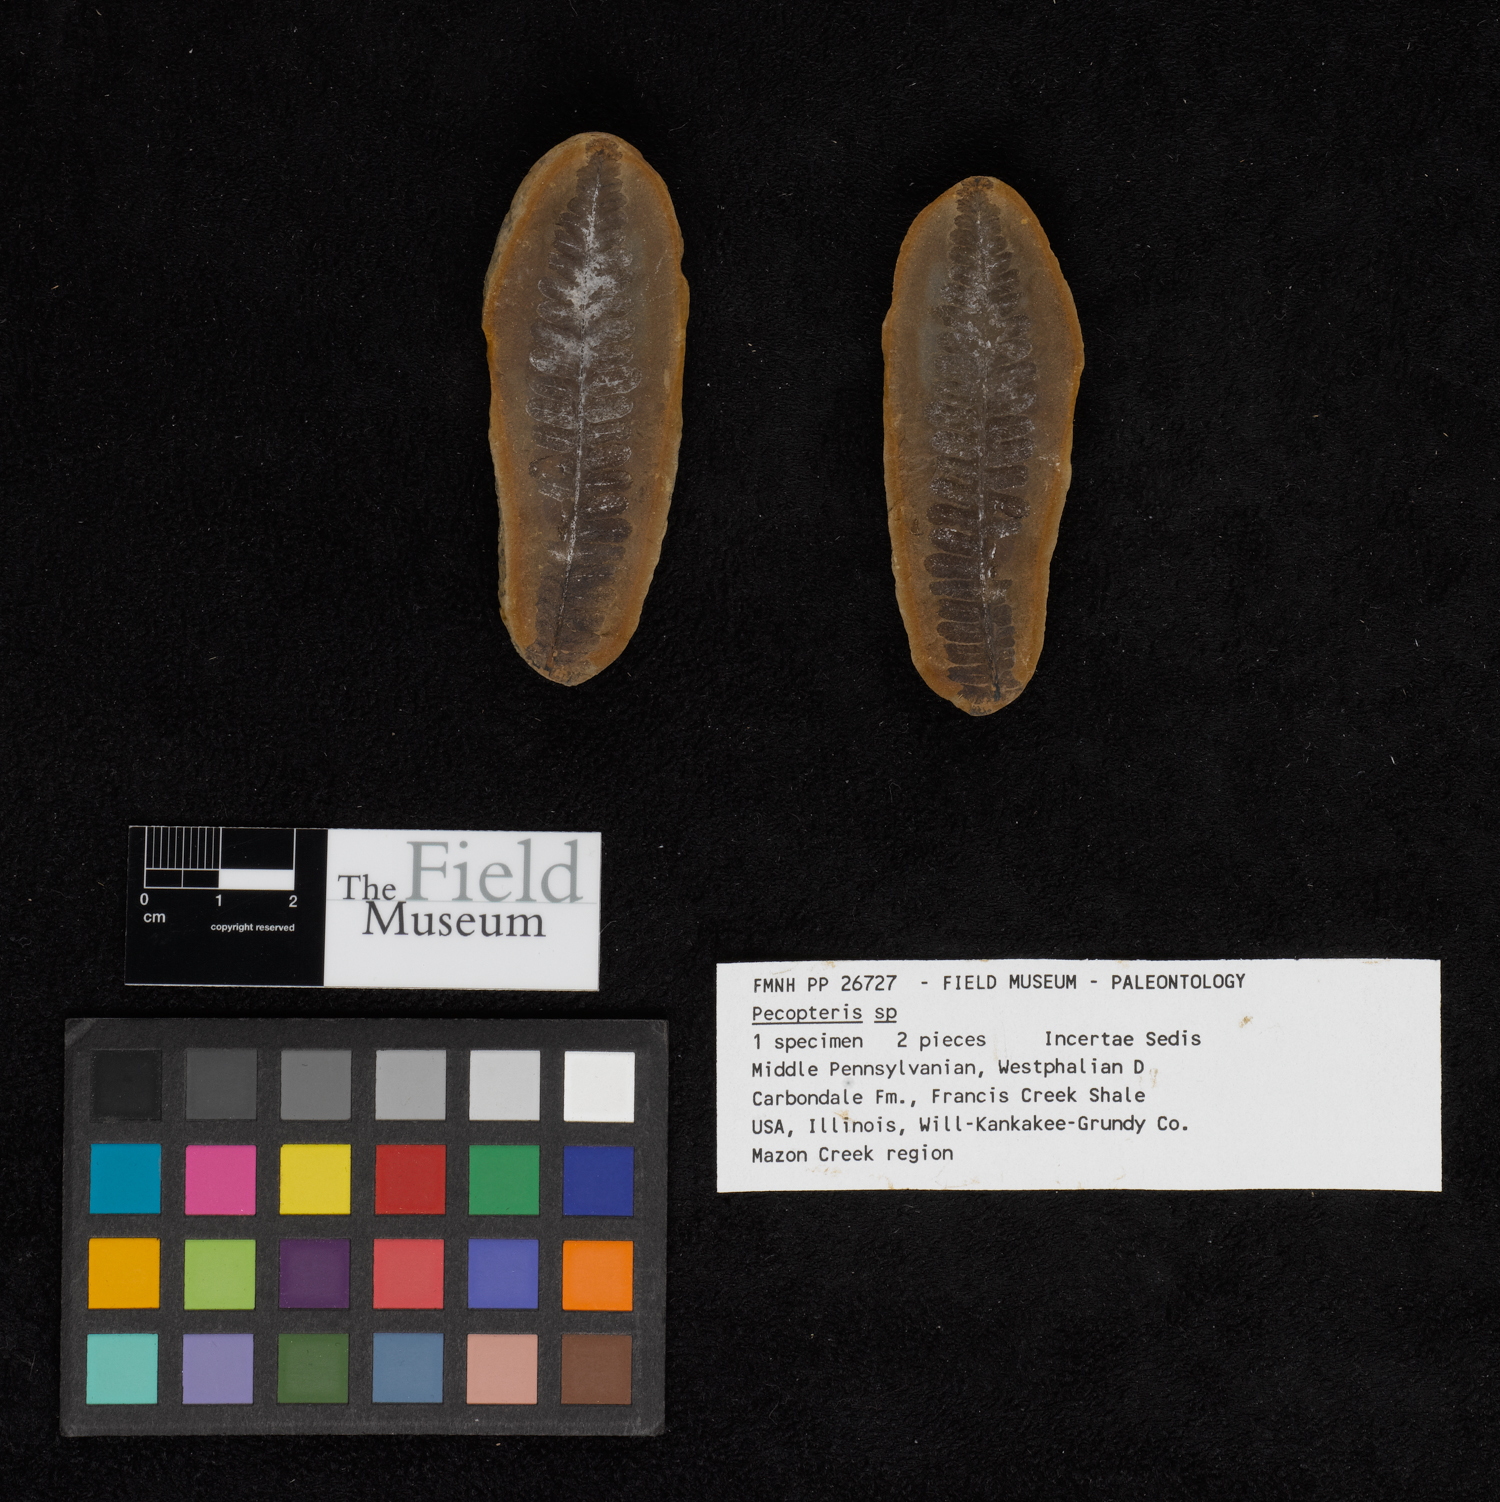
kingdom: Plantae
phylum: Tracheophyta
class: Polypodiopsida
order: Marattiales
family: Asterothecaceae
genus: Pecopteris
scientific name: Pecopteris
